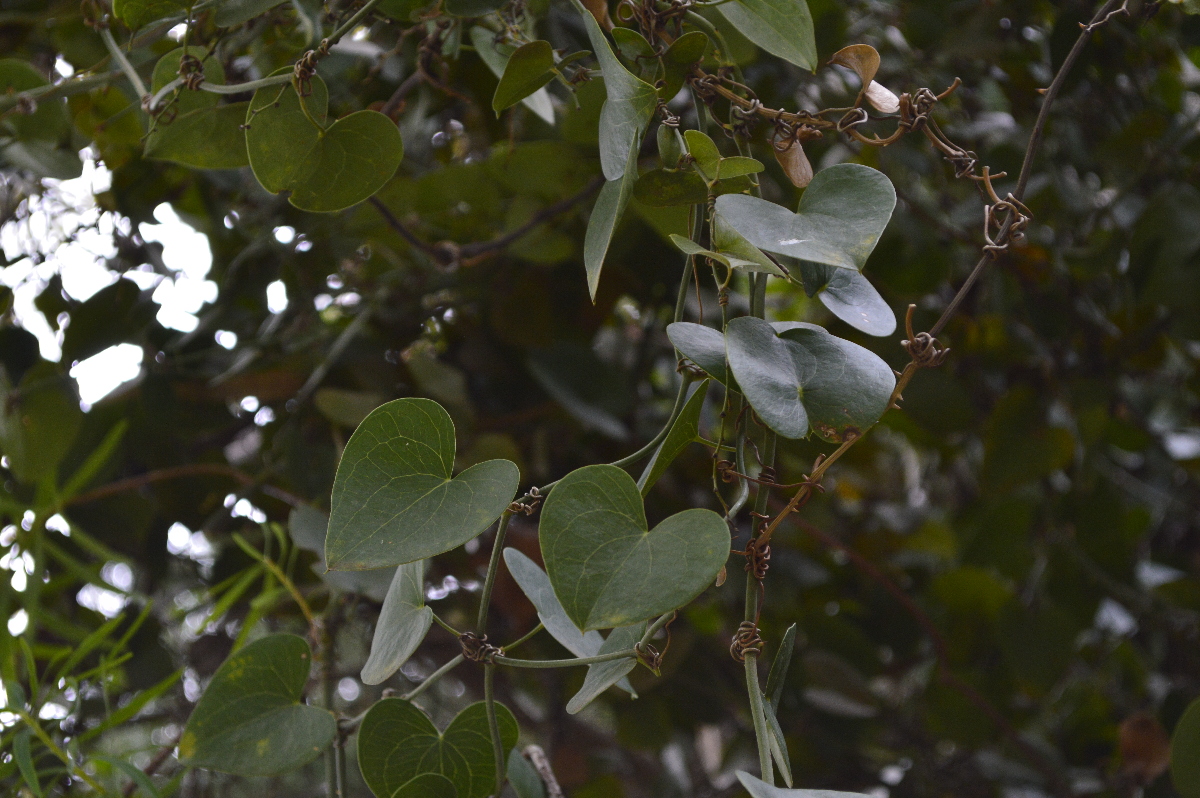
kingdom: Plantae
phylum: Tracheophyta
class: Liliopsida
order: Liliales
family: Smilacaceae
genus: Smilax
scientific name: Smilax excelsa
